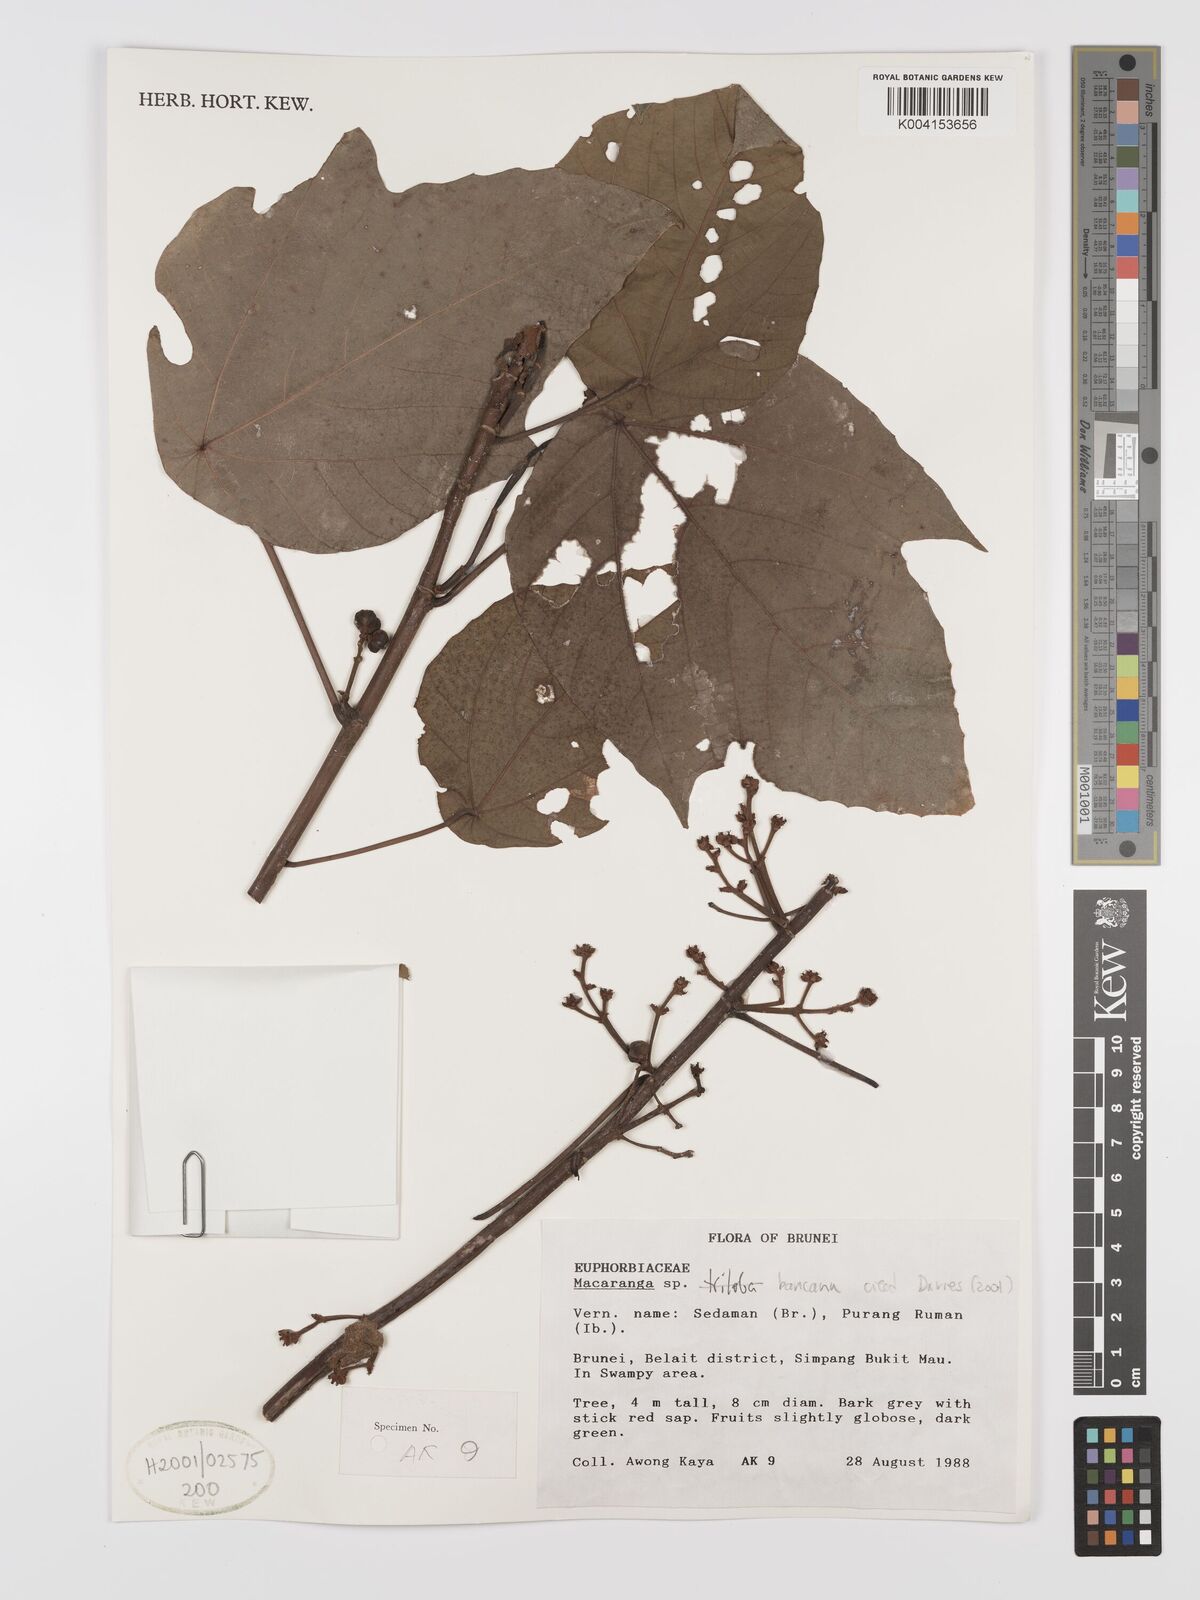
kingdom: Plantae
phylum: Tracheophyta
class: Magnoliopsida
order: Malpighiales
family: Euphorbiaceae
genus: Macaranga
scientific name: Macaranga triloba
